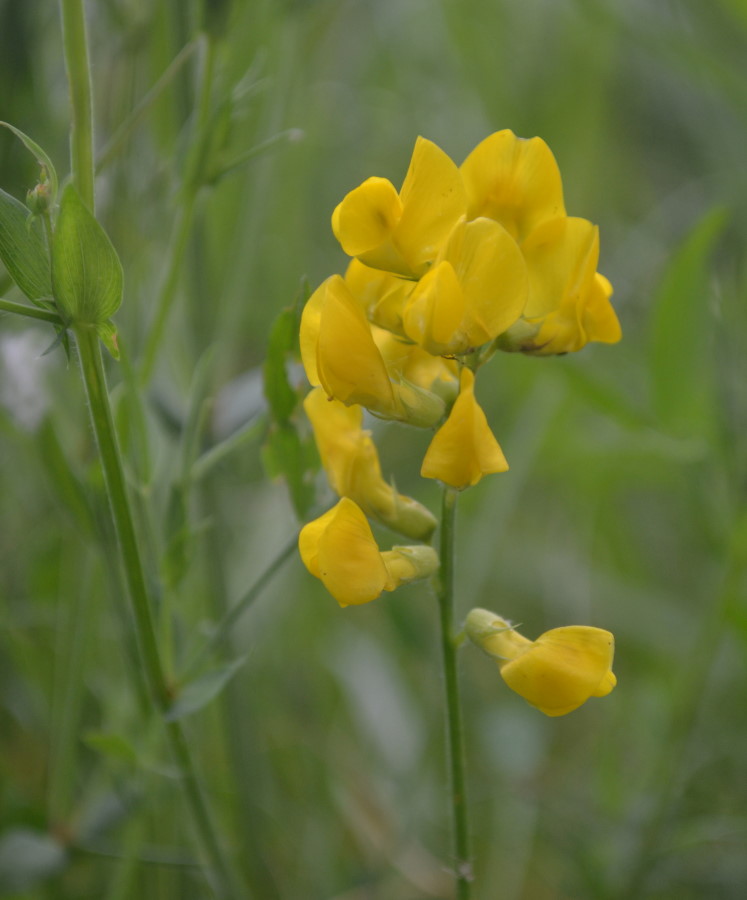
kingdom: Plantae
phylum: Tracheophyta
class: Magnoliopsida
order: Fabales
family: Fabaceae
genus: Lathyrus
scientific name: Lathyrus pratensis
